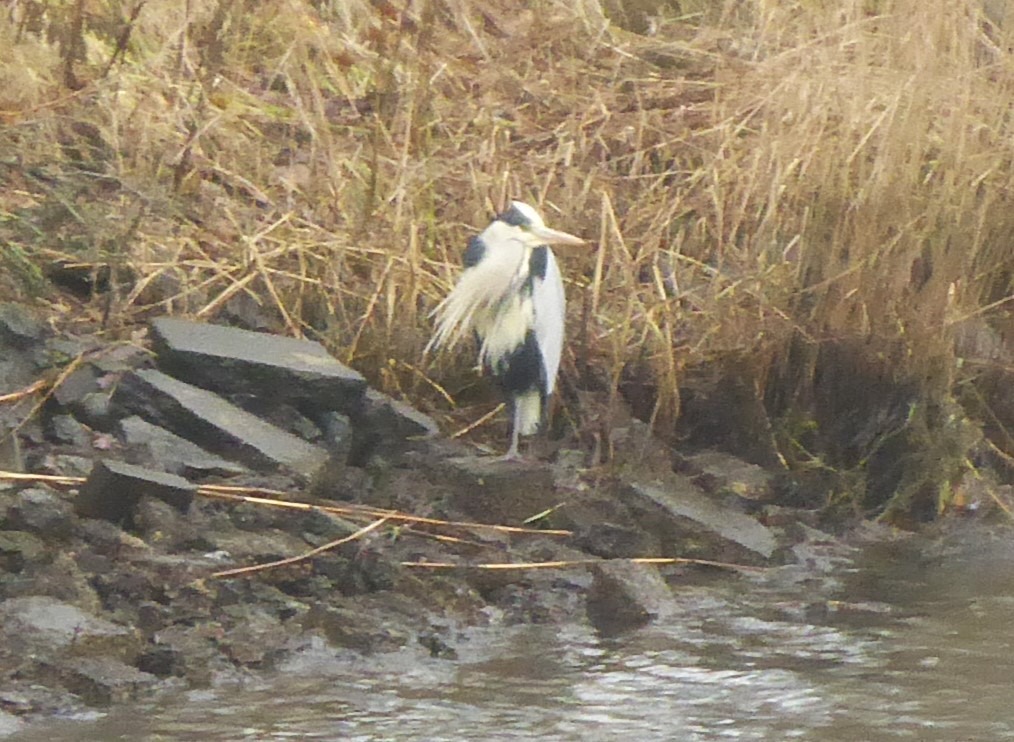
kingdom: Animalia
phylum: Chordata
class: Aves
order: Pelecaniformes
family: Ardeidae
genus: Ardea
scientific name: Ardea cinerea
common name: Fiskehejre
